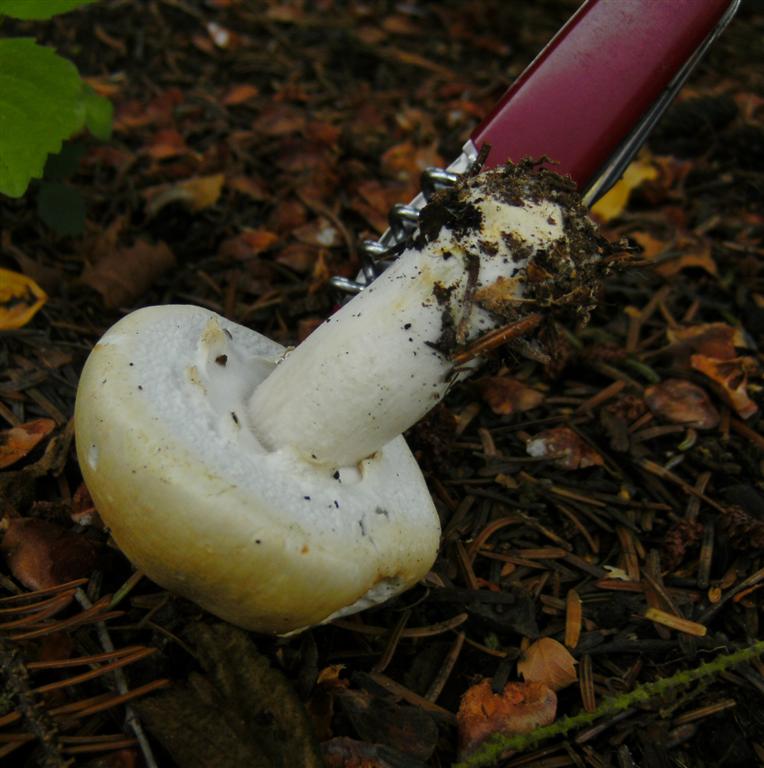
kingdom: Fungi
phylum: Basidiomycota
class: Agaricomycetes
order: Agaricales
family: Agaricaceae
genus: Agaricus
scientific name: Agaricus arvensis
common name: ager-champignon
